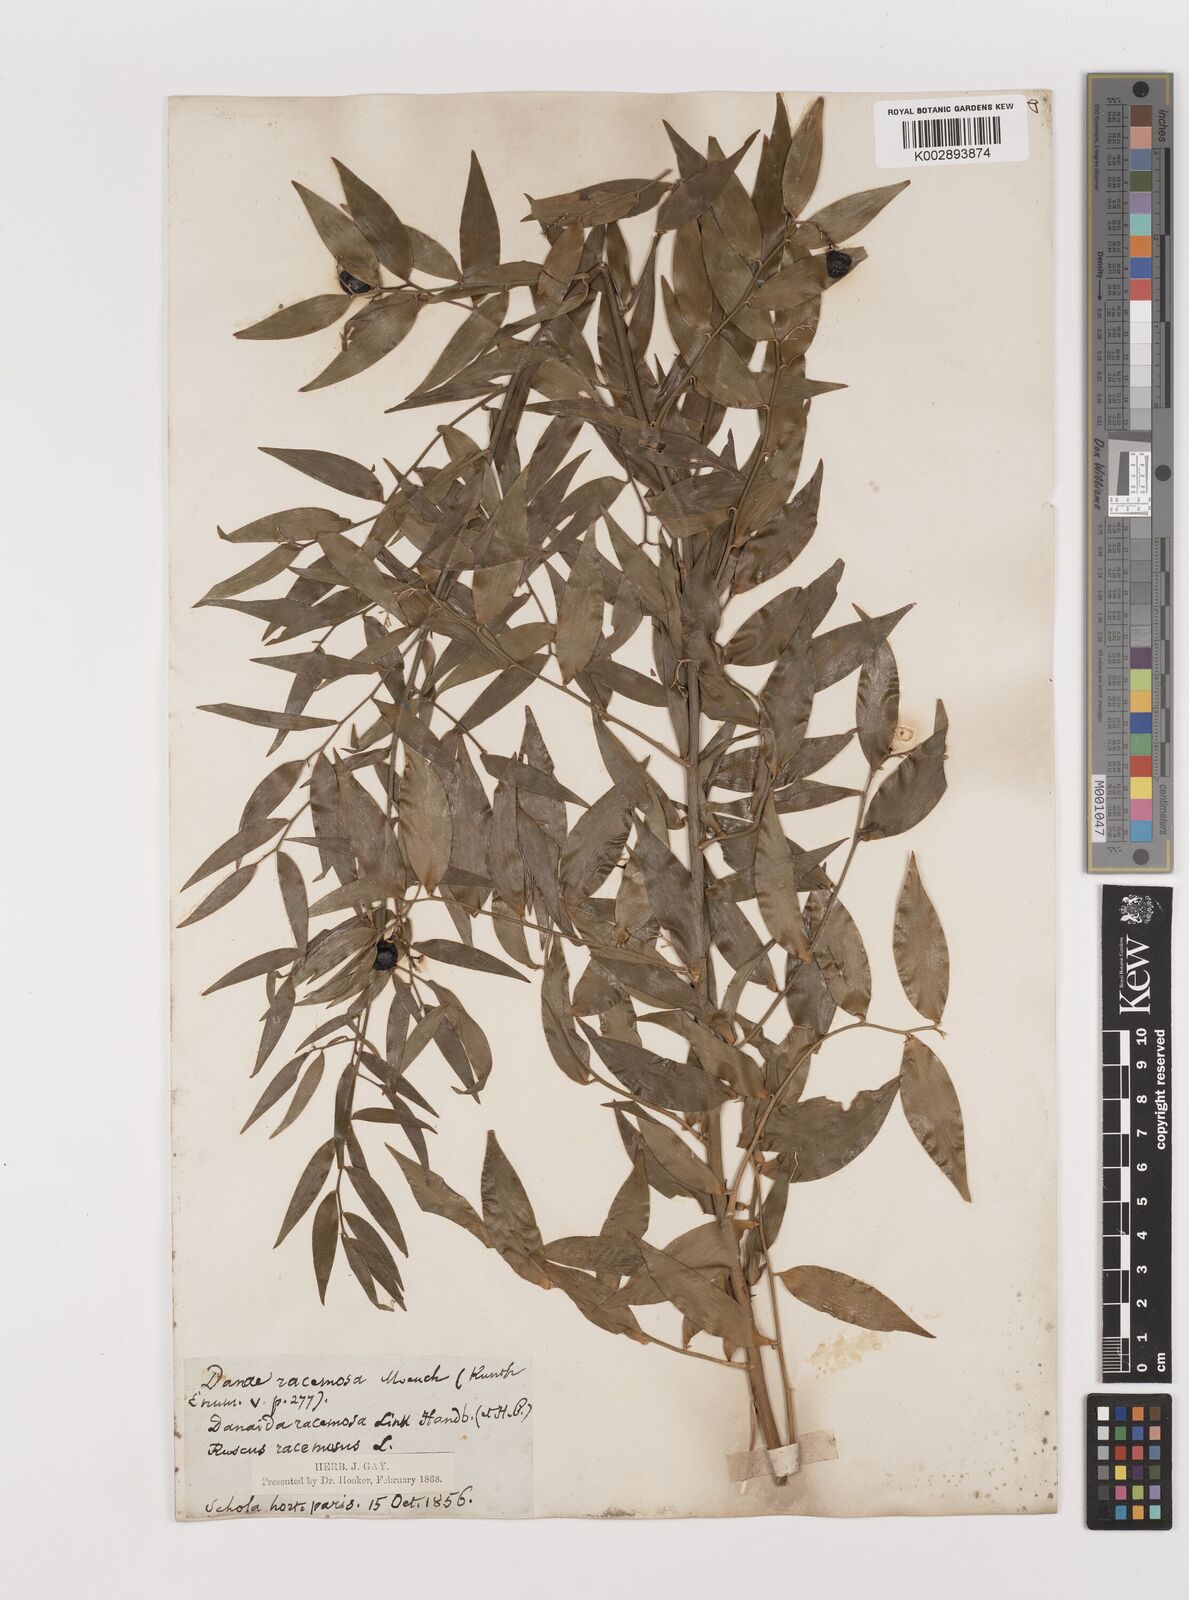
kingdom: Plantae
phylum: Tracheophyta
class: Liliopsida
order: Asparagales
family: Asparagaceae
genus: Danae
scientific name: Danae
